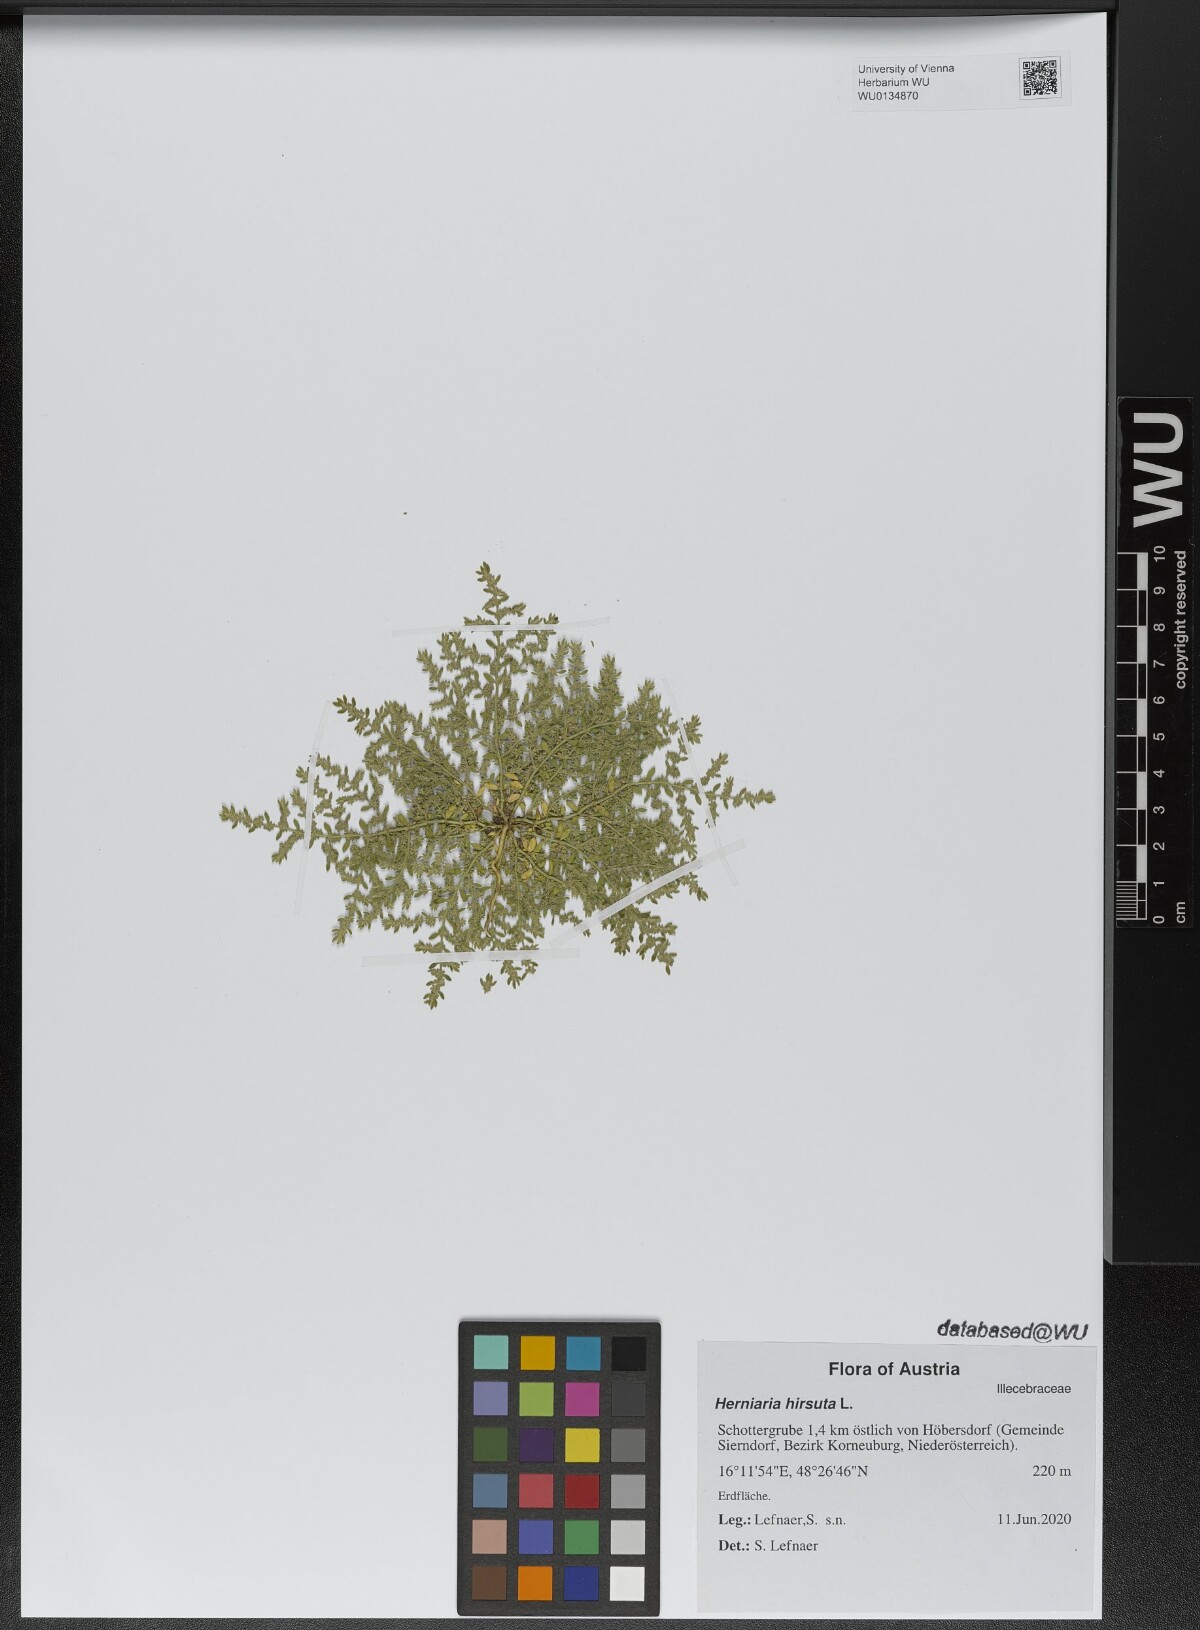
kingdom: Plantae
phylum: Tracheophyta
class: Magnoliopsida
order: Caryophyllales
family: Caryophyllaceae
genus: Herniaria
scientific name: Herniaria hirsuta
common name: Hairy rupturewort
